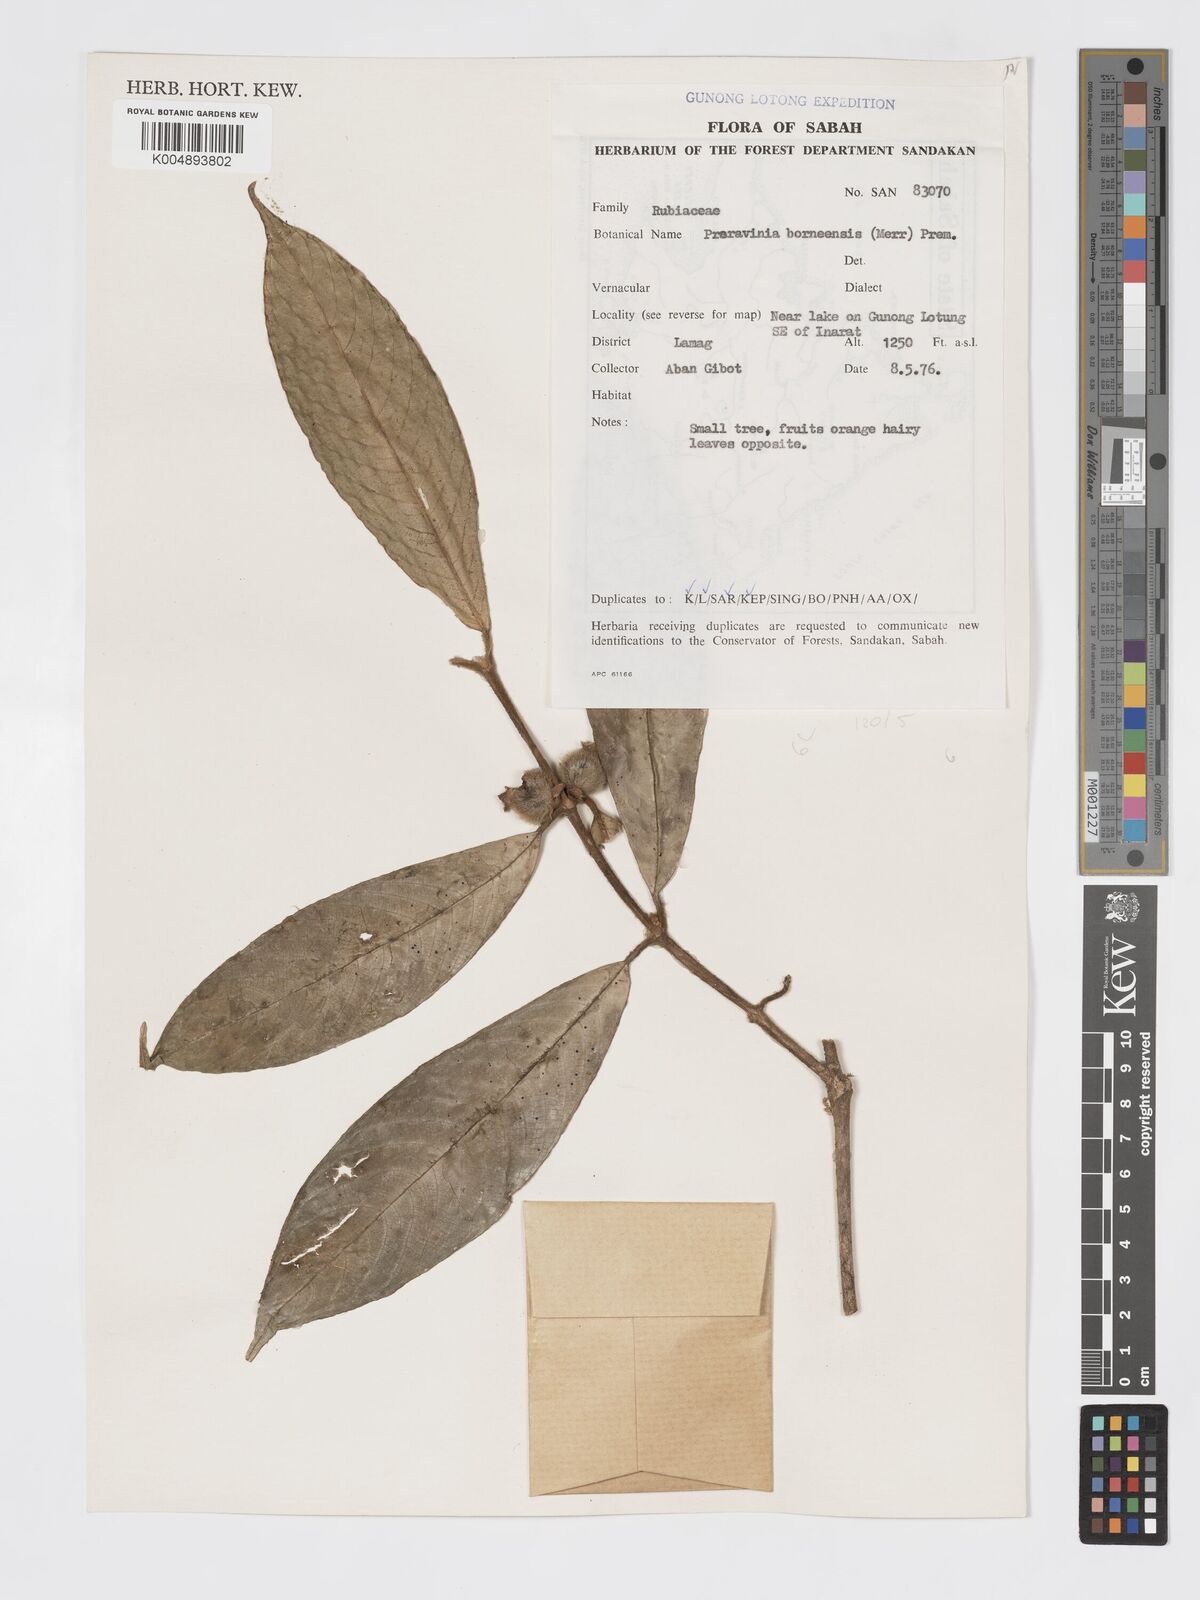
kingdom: Plantae
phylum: Tracheophyta
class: Magnoliopsida
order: Gentianales
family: Rubiaceae
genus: Praravinia
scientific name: Praravinia borneensis
